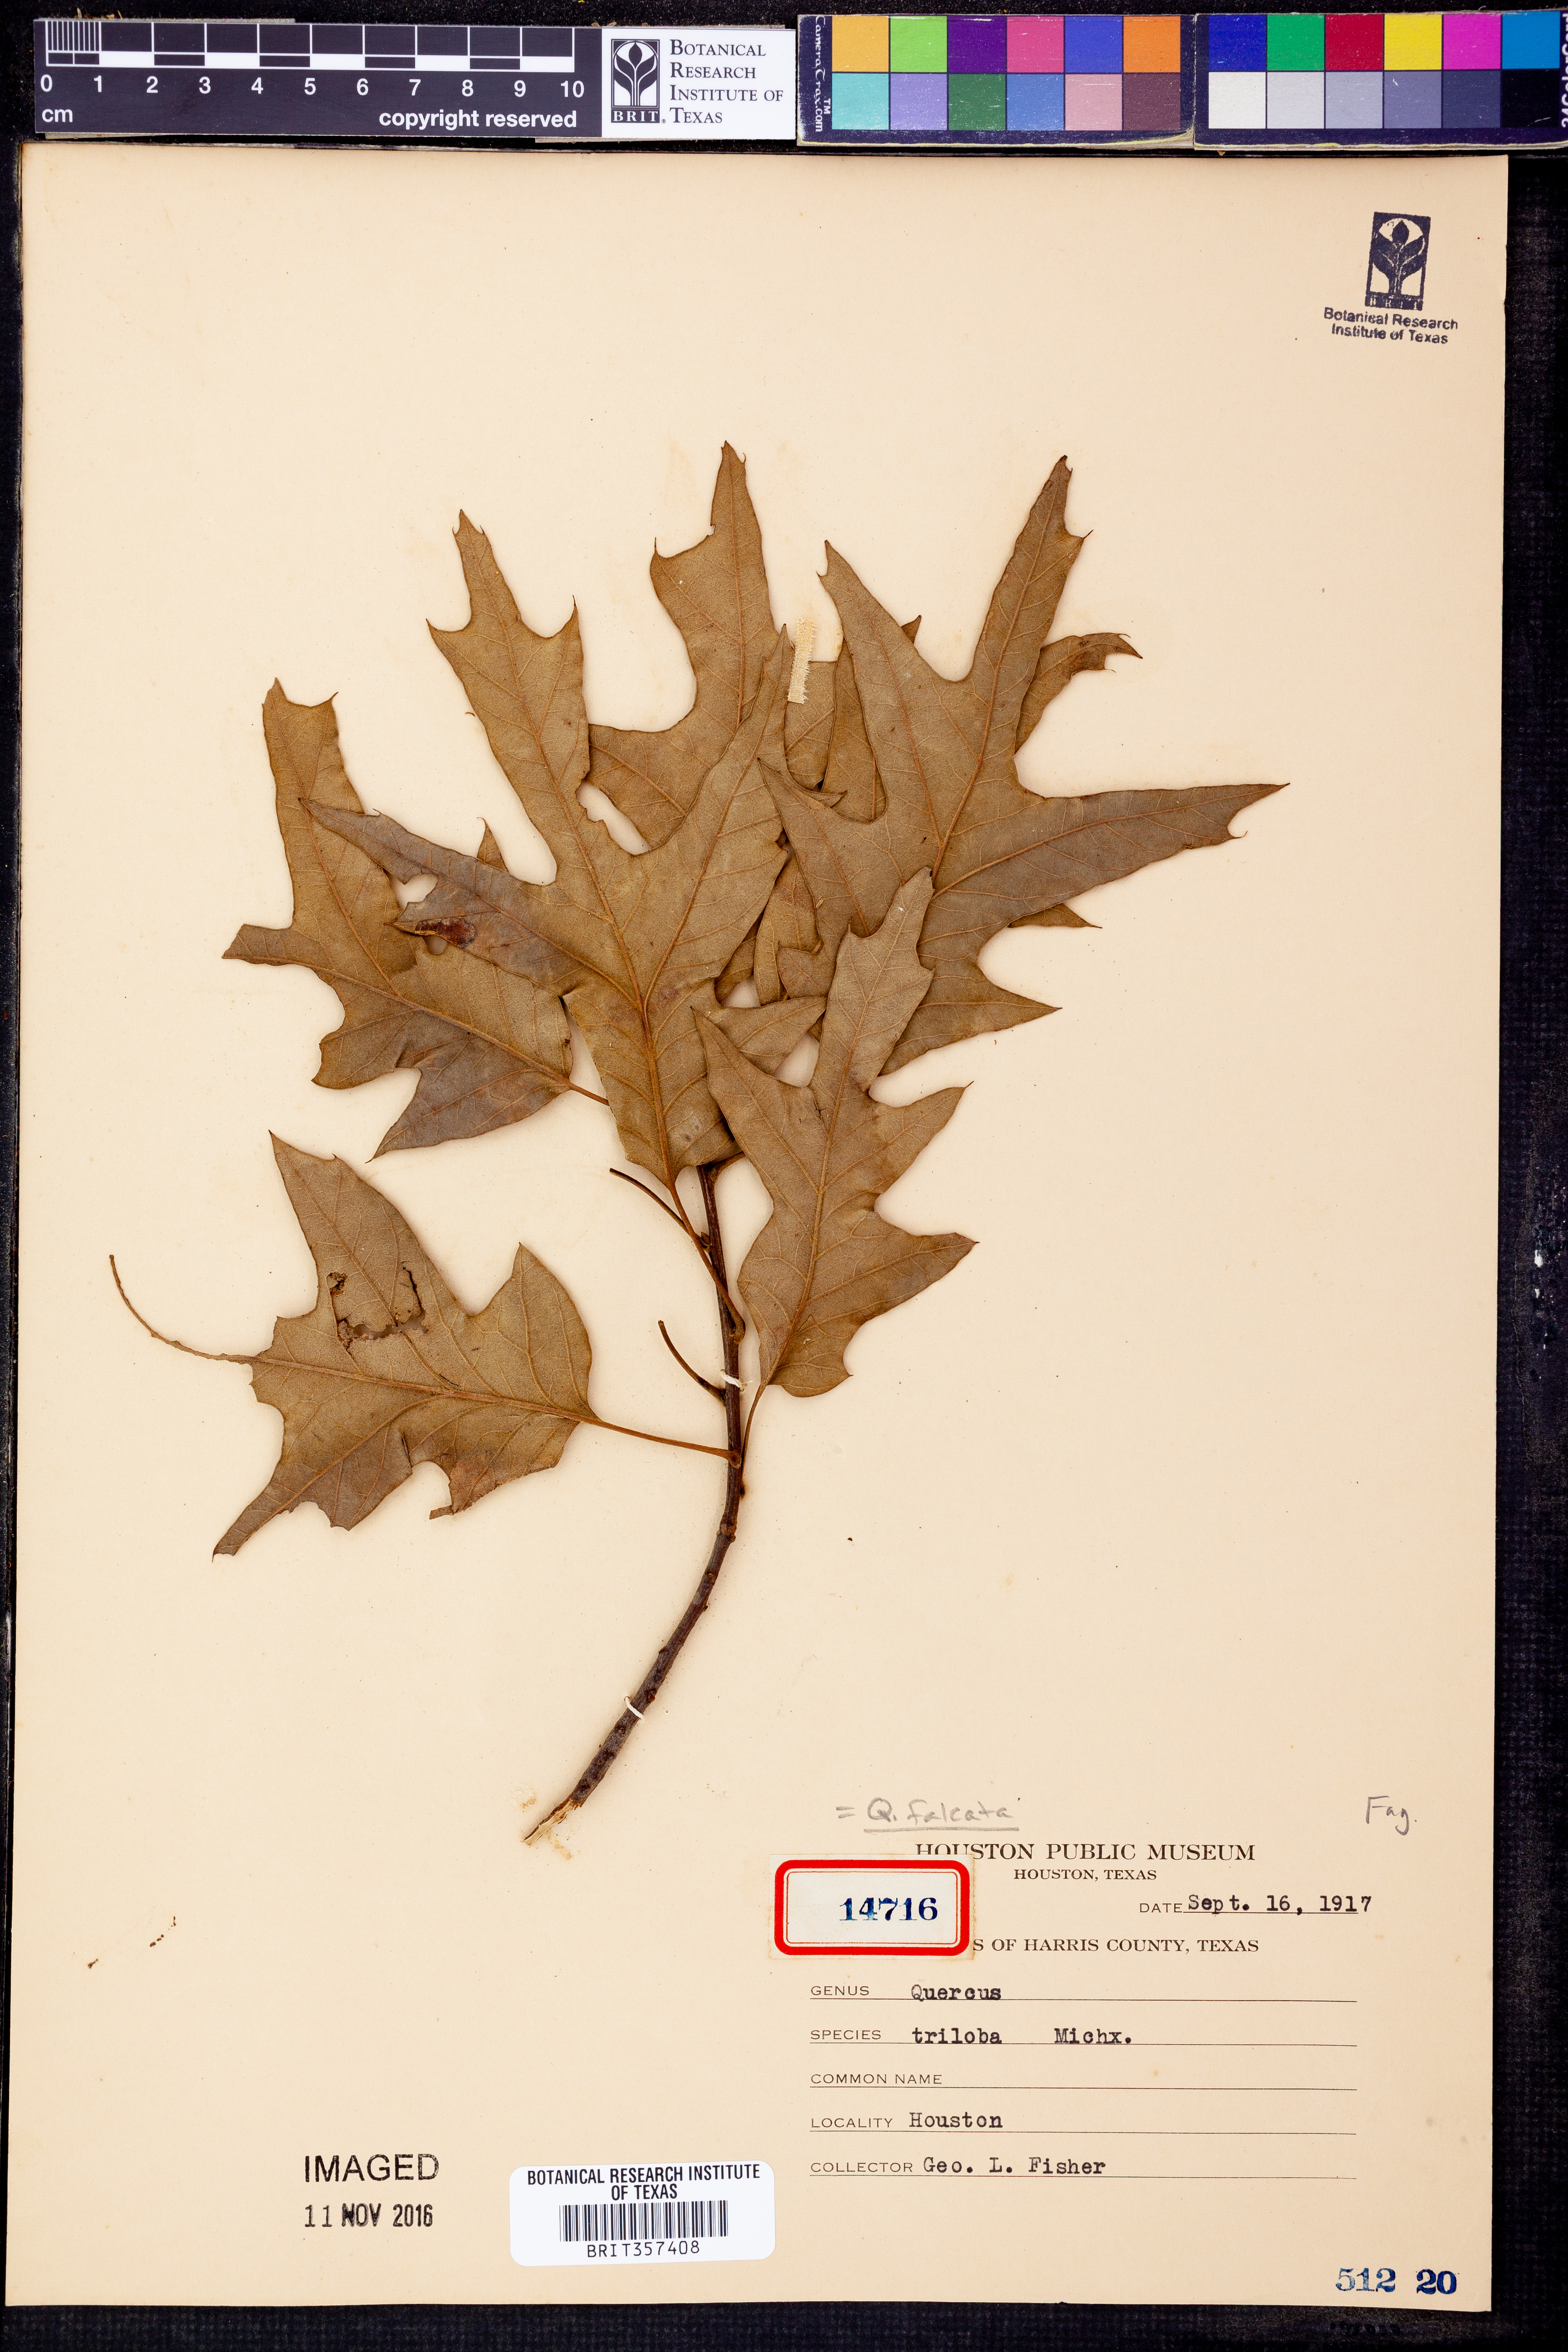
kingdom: Plantae
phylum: Tracheophyta
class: Magnoliopsida
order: Fagales
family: Fagaceae
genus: Quercus
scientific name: Quercus falcata
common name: Southern red oak
